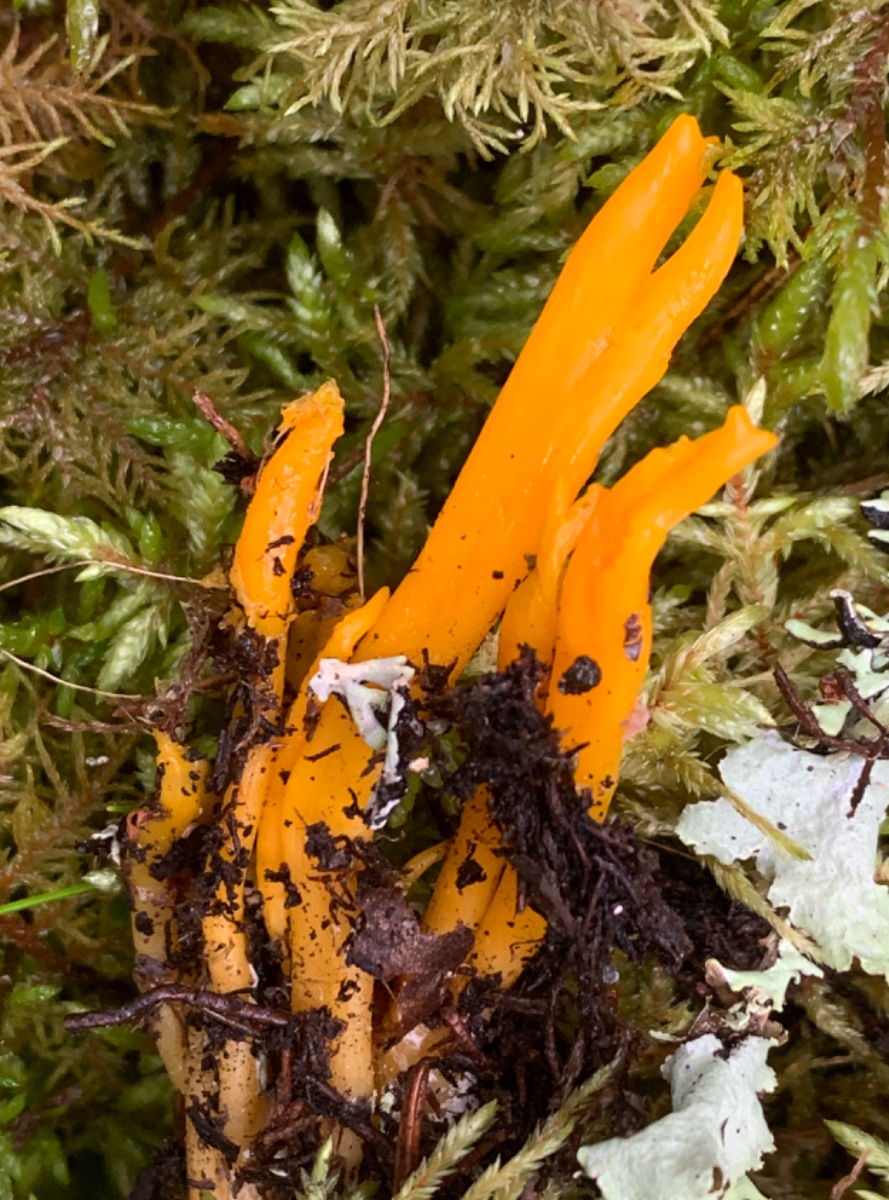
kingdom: Fungi
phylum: Basidiomycota
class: Dacrymycetes
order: Dacrymycetales
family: Dacrymycetaceae
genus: Calocera
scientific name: Calocera viscosa
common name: almindelig guldgaffel
